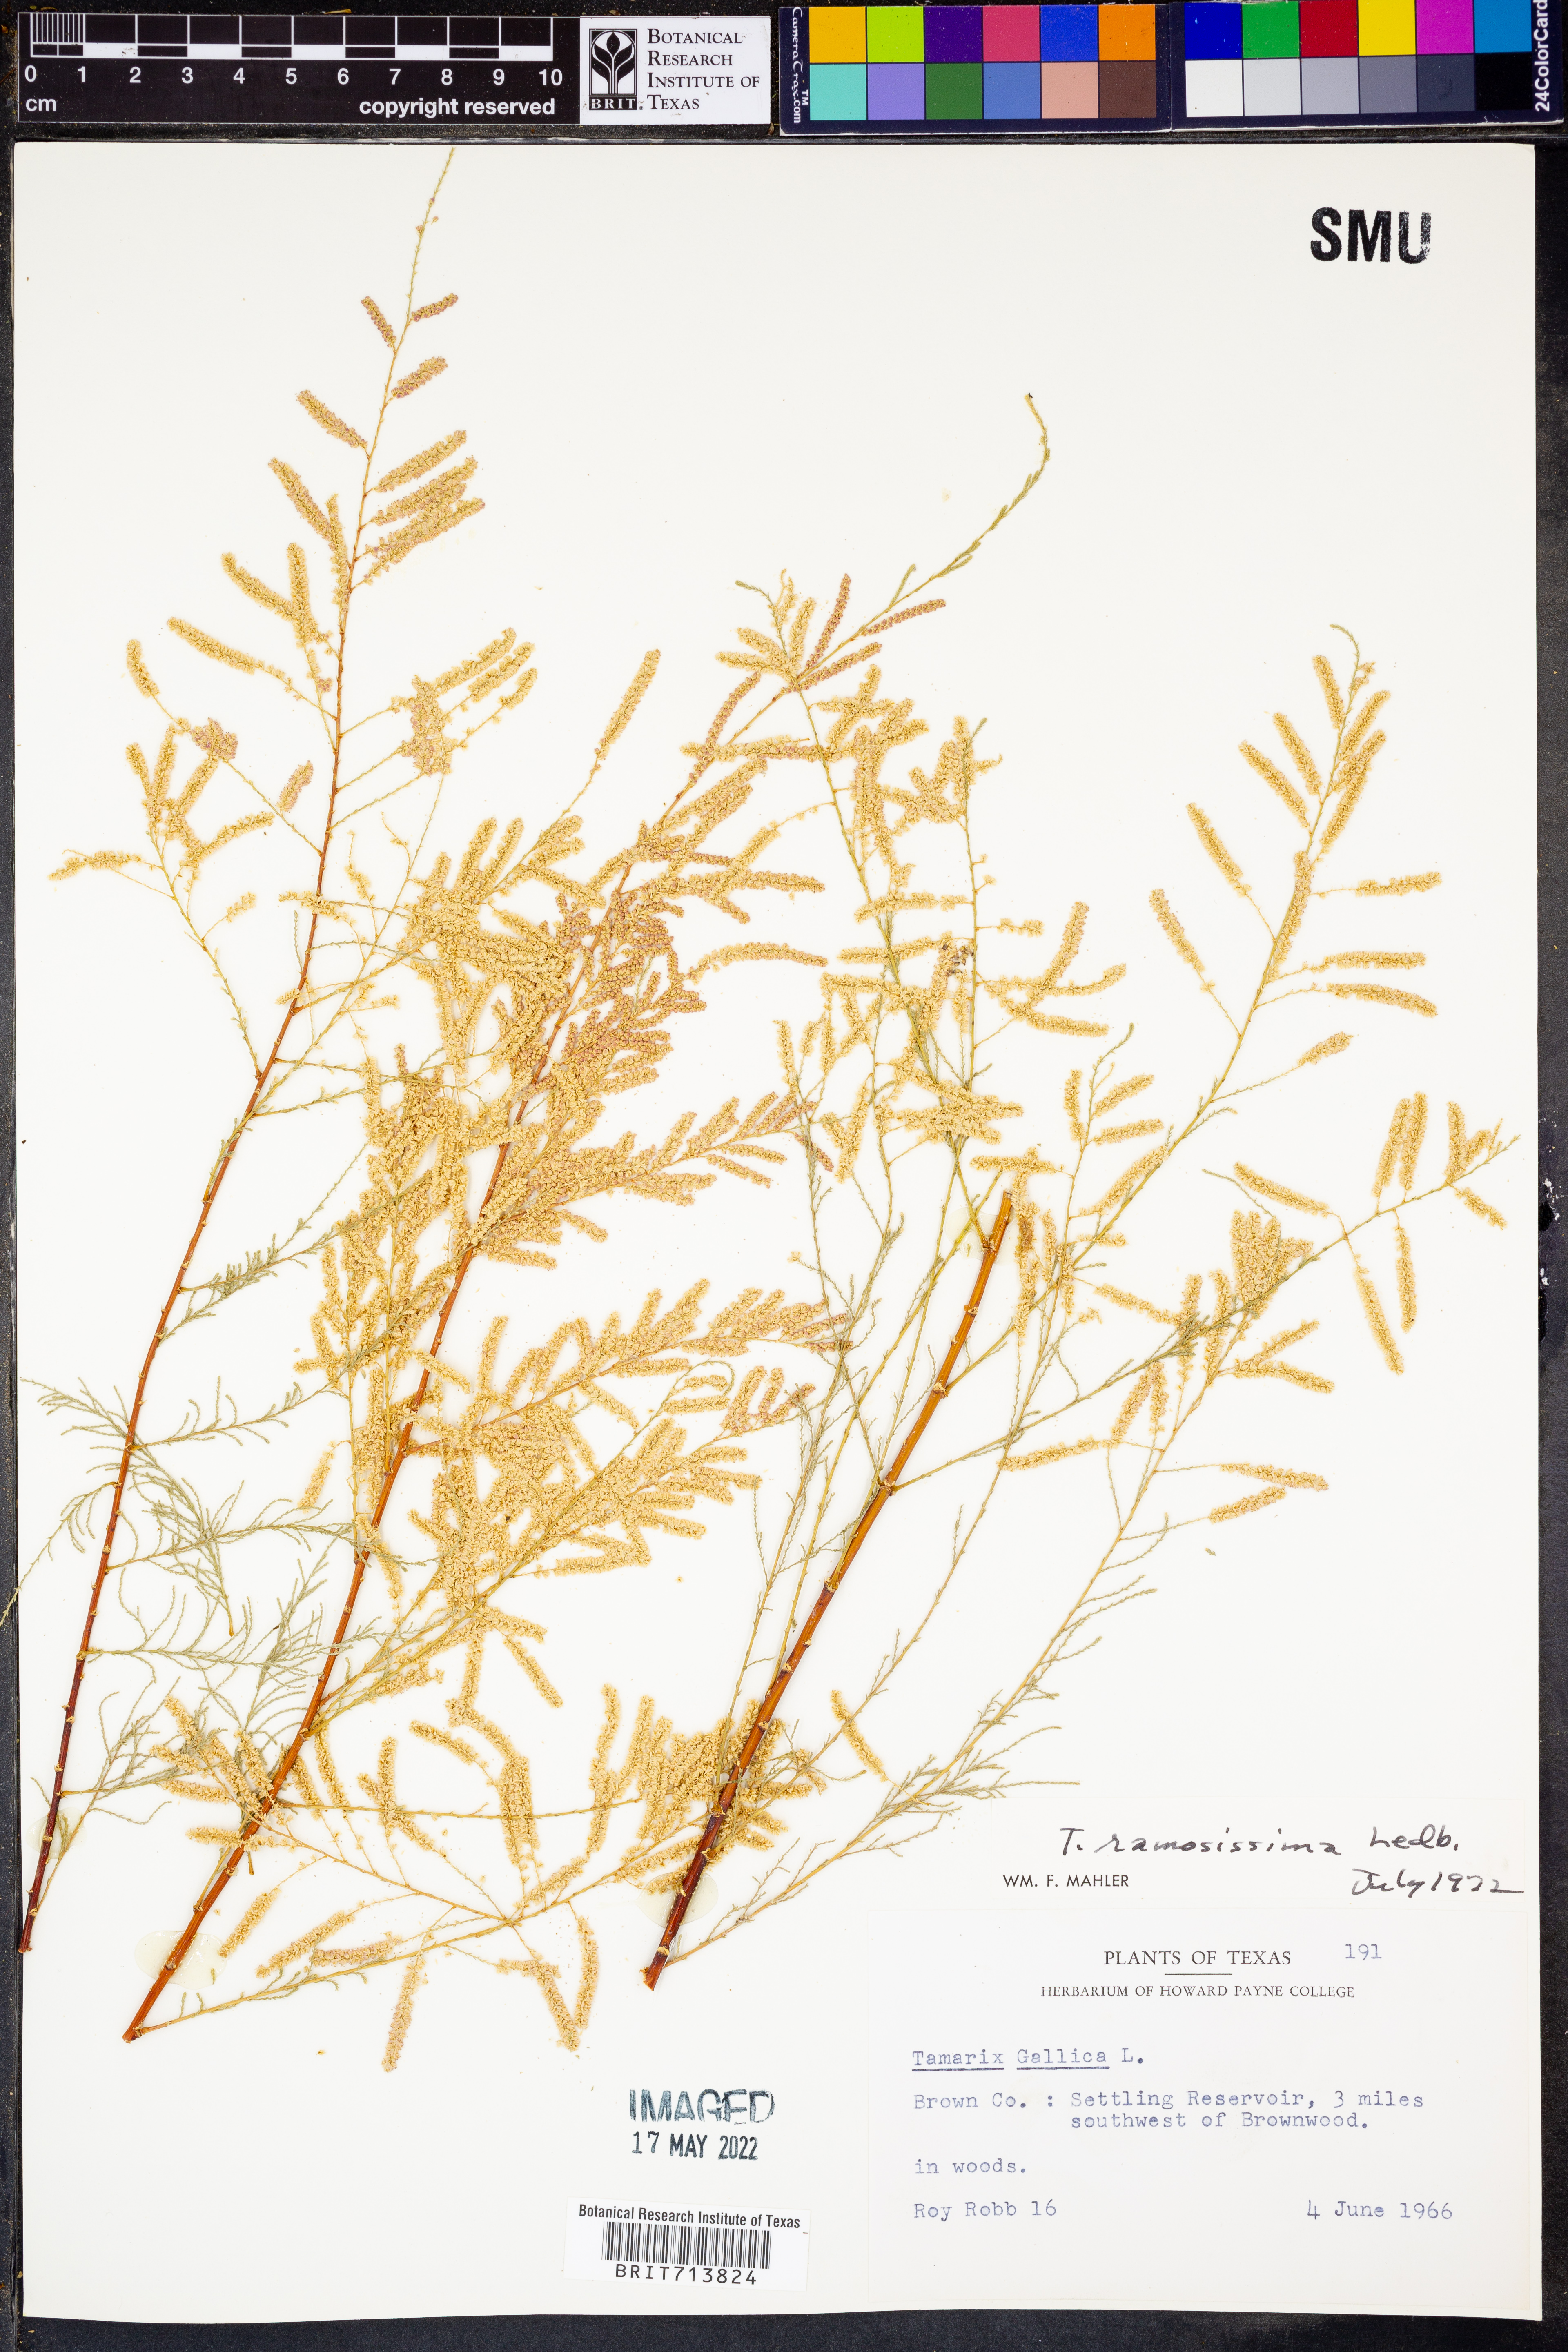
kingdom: Plantae
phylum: Tracheophyta
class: Magnoliopsida
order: Caryophyllales
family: Tamaricaceae
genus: Tamarix
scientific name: Tamarix ramosissima
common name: Pink tamarisk
